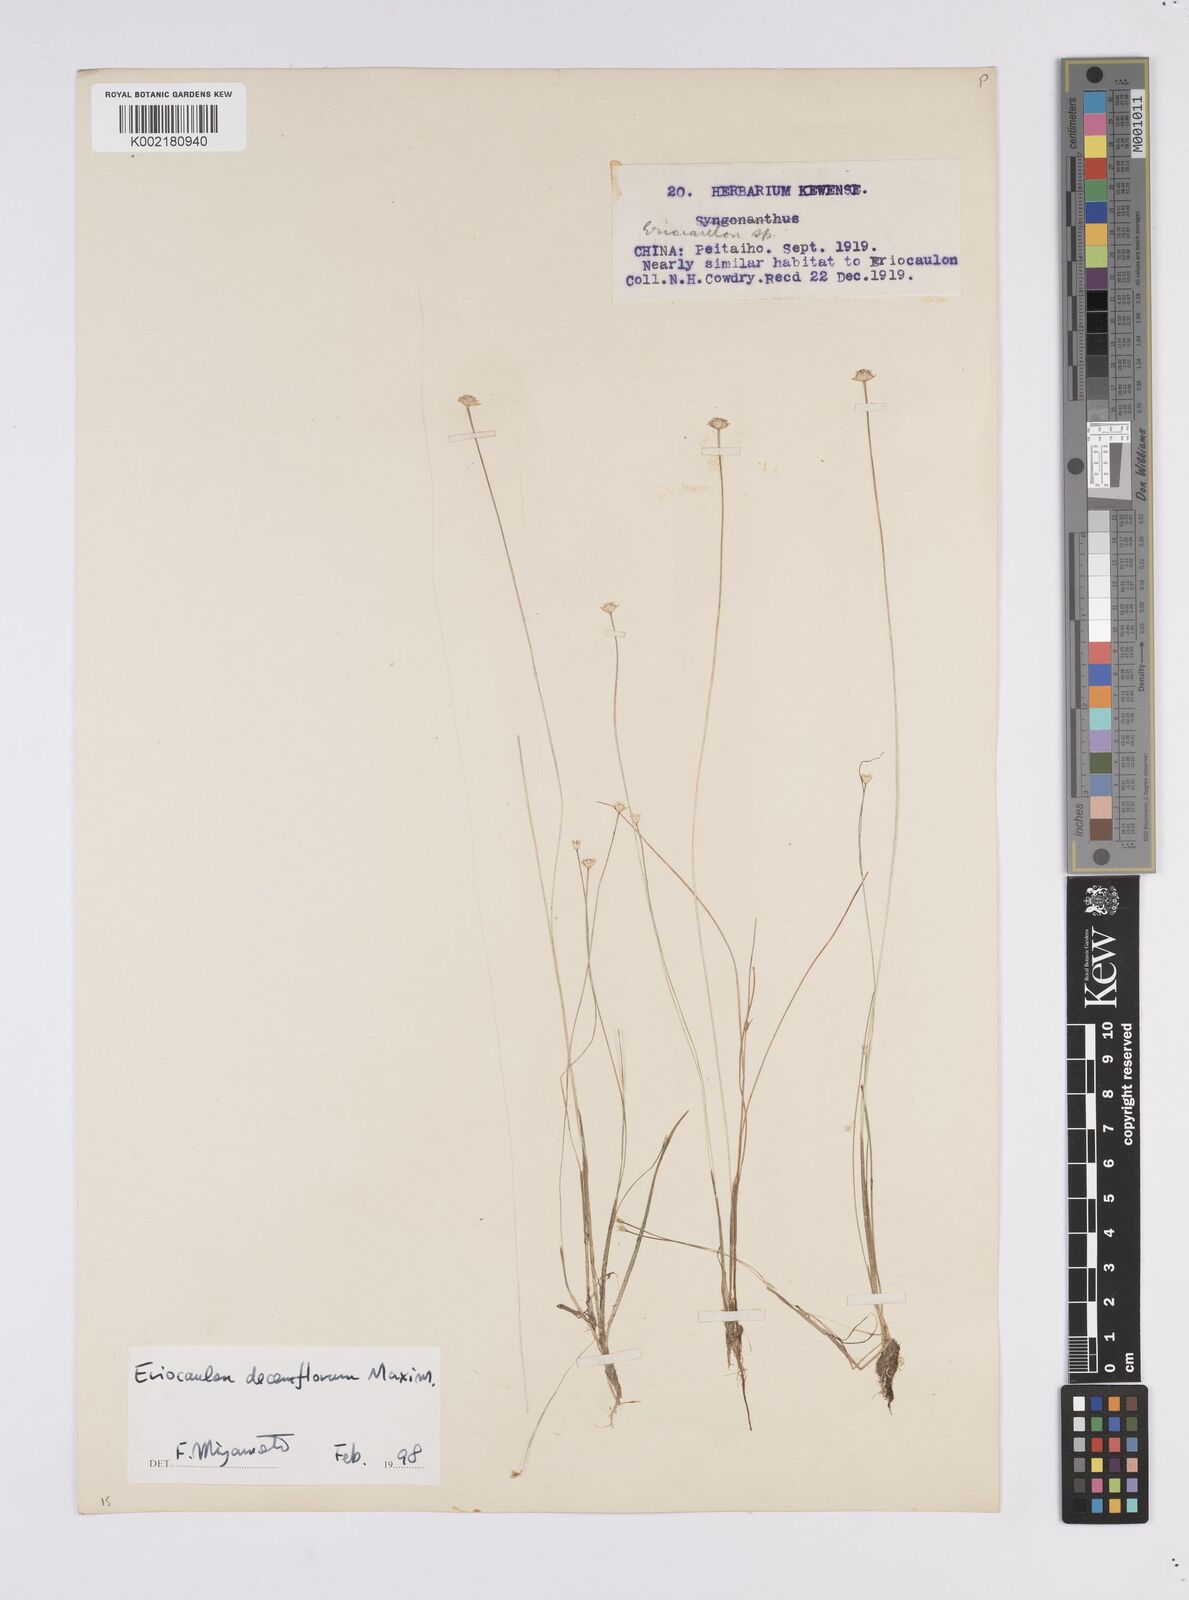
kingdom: Plantae
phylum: Tracheophyta
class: Liliopsida
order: Poales
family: Eriocaulaceae
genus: Eriocaulon
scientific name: Eriocaulon decemflorum
